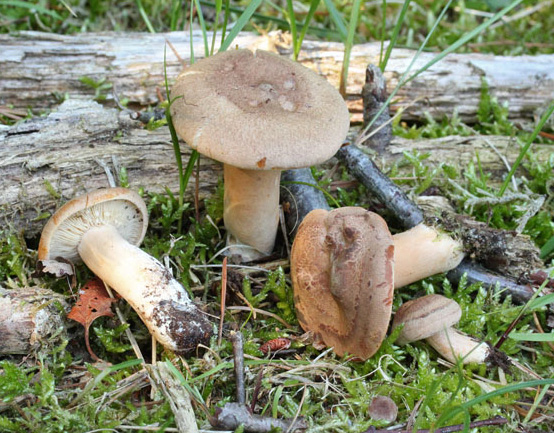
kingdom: Fungi
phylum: Basidiomycota
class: Agaricomycetes
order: Russulales
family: Russulaceae
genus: Lactarius
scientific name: Lactarius helvus
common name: mose-mælkehat
